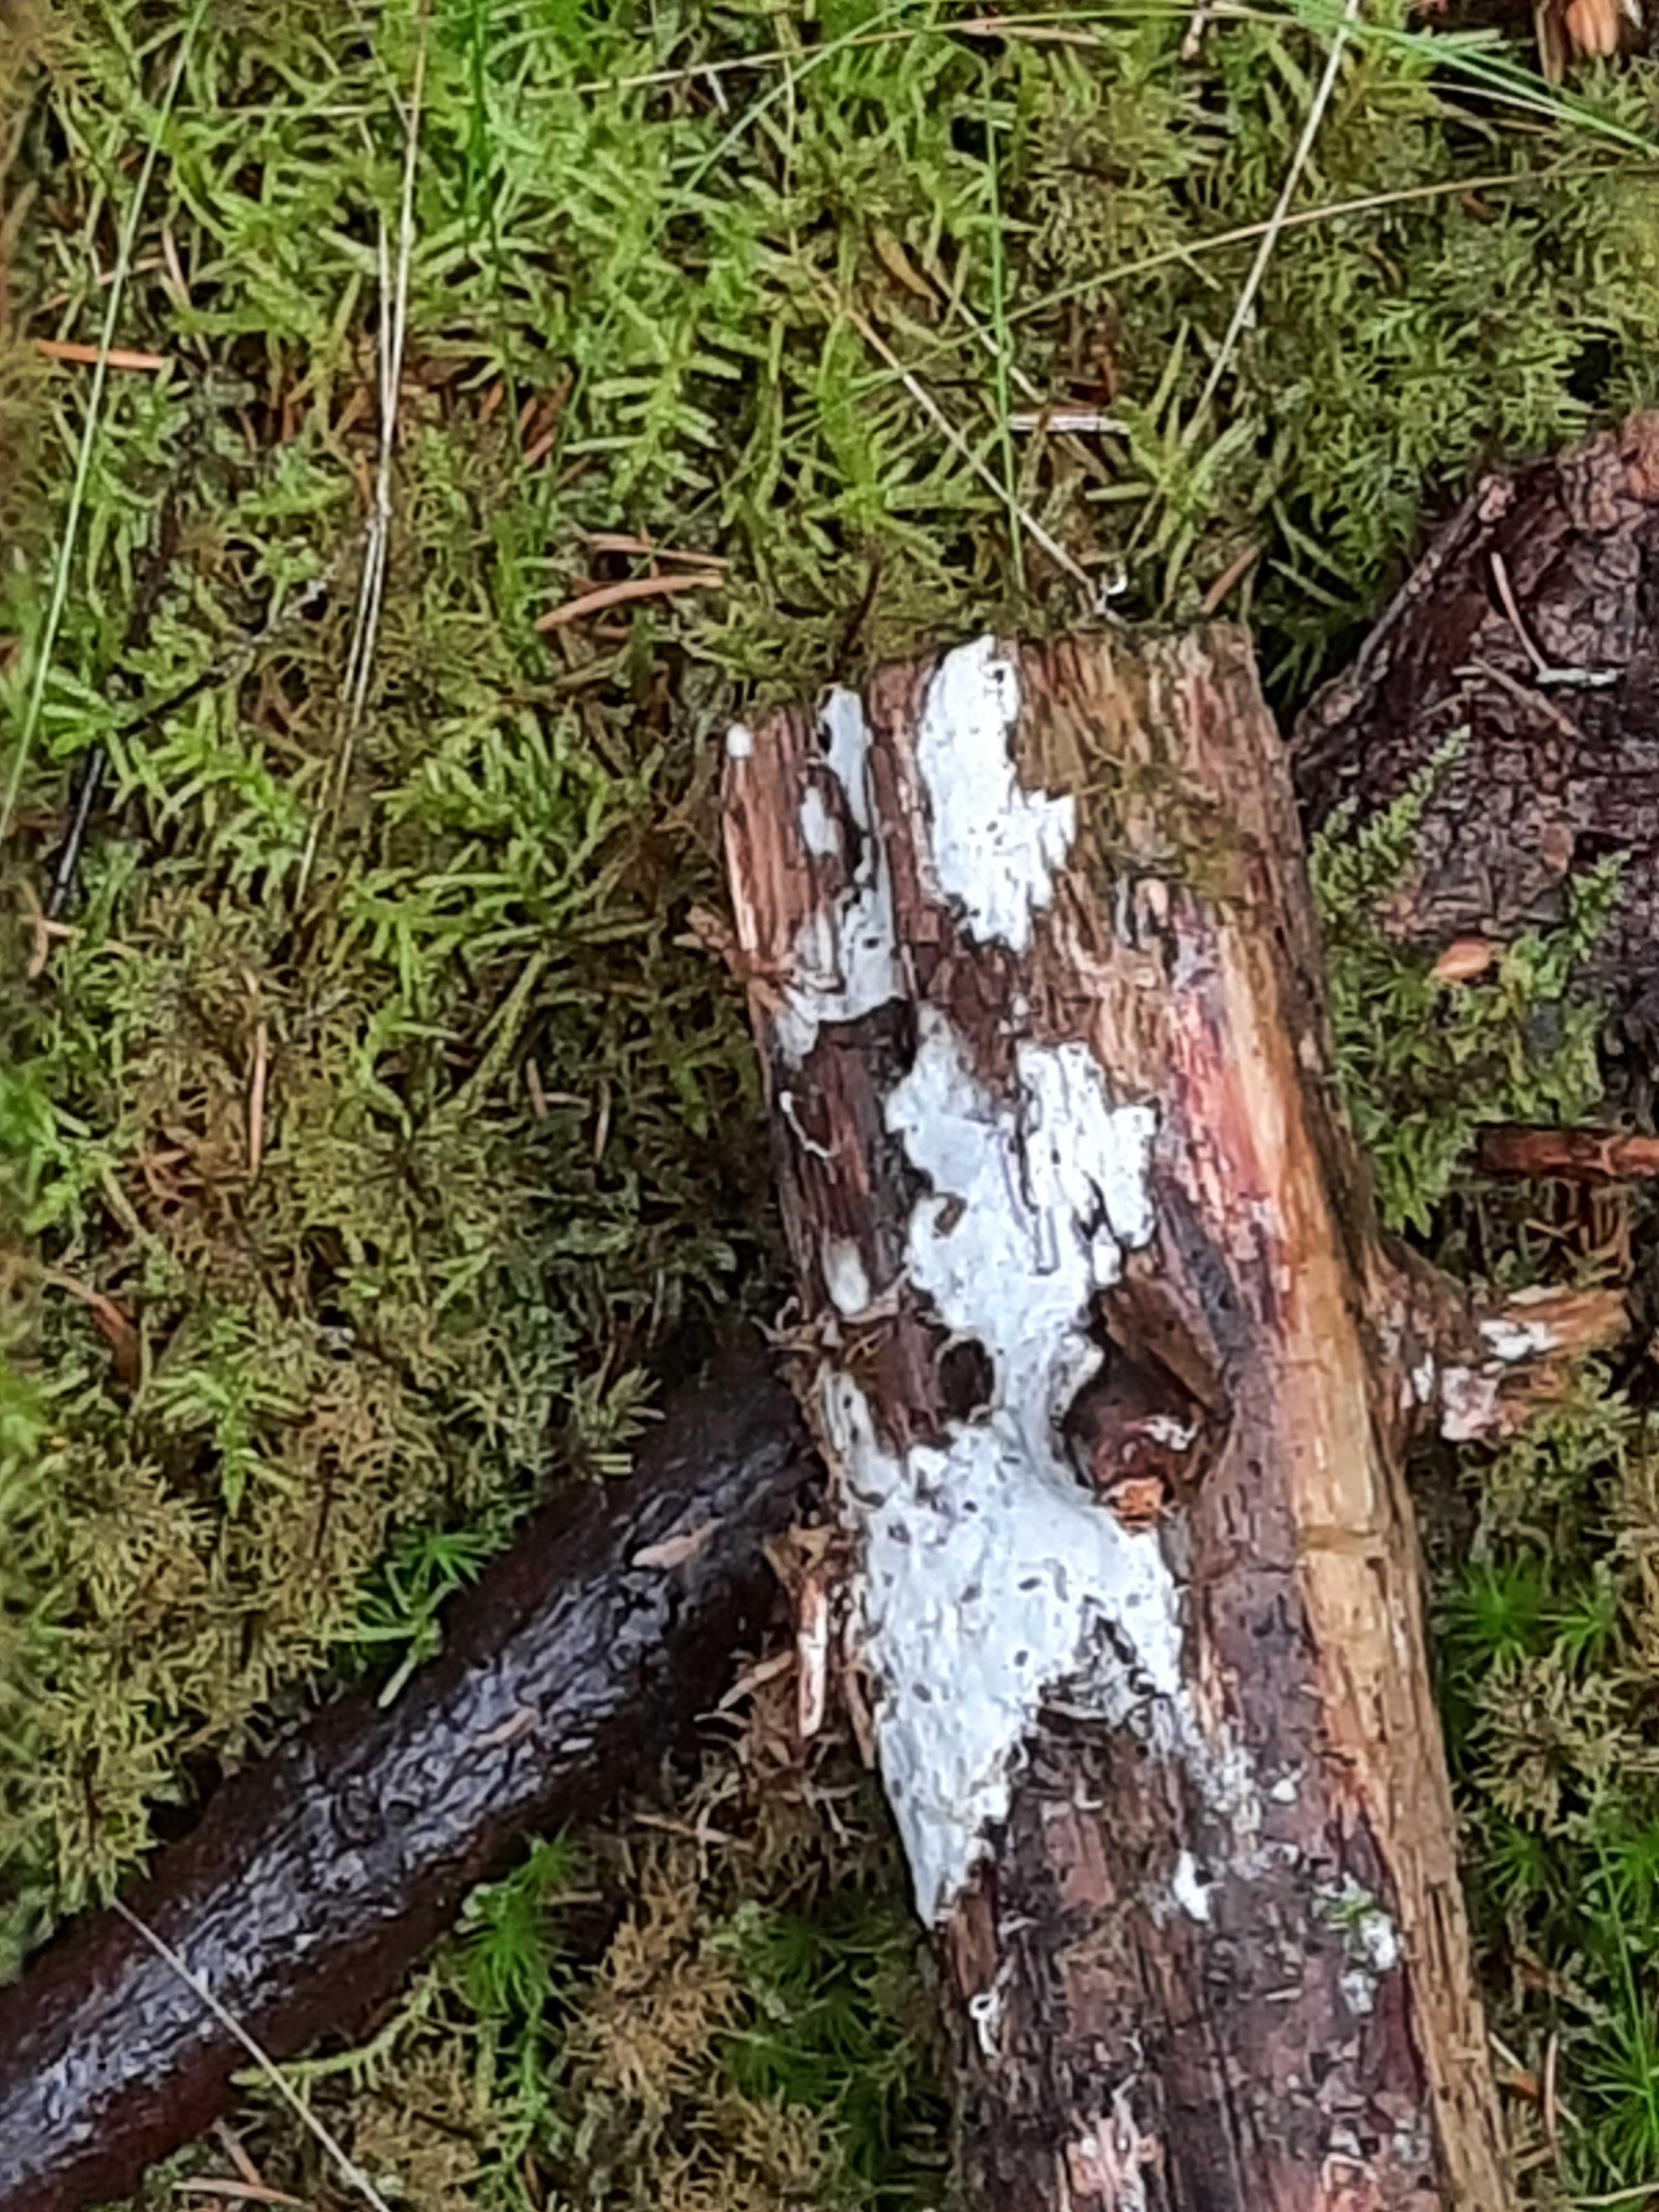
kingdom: Fungi
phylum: Basidiomycota
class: Agaricomycetes
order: Trechisporales
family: Sistotremataceae
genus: Trechispora
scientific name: Trechispora
